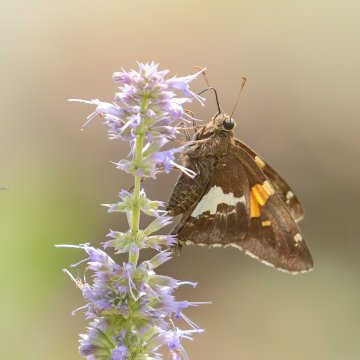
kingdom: Animalia
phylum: Arthropoda
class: Insecta
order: Lepidoptera
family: Hesperiidae
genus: Epargyreus
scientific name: Epargyreus clarus
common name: Silver-spotted Skipper
